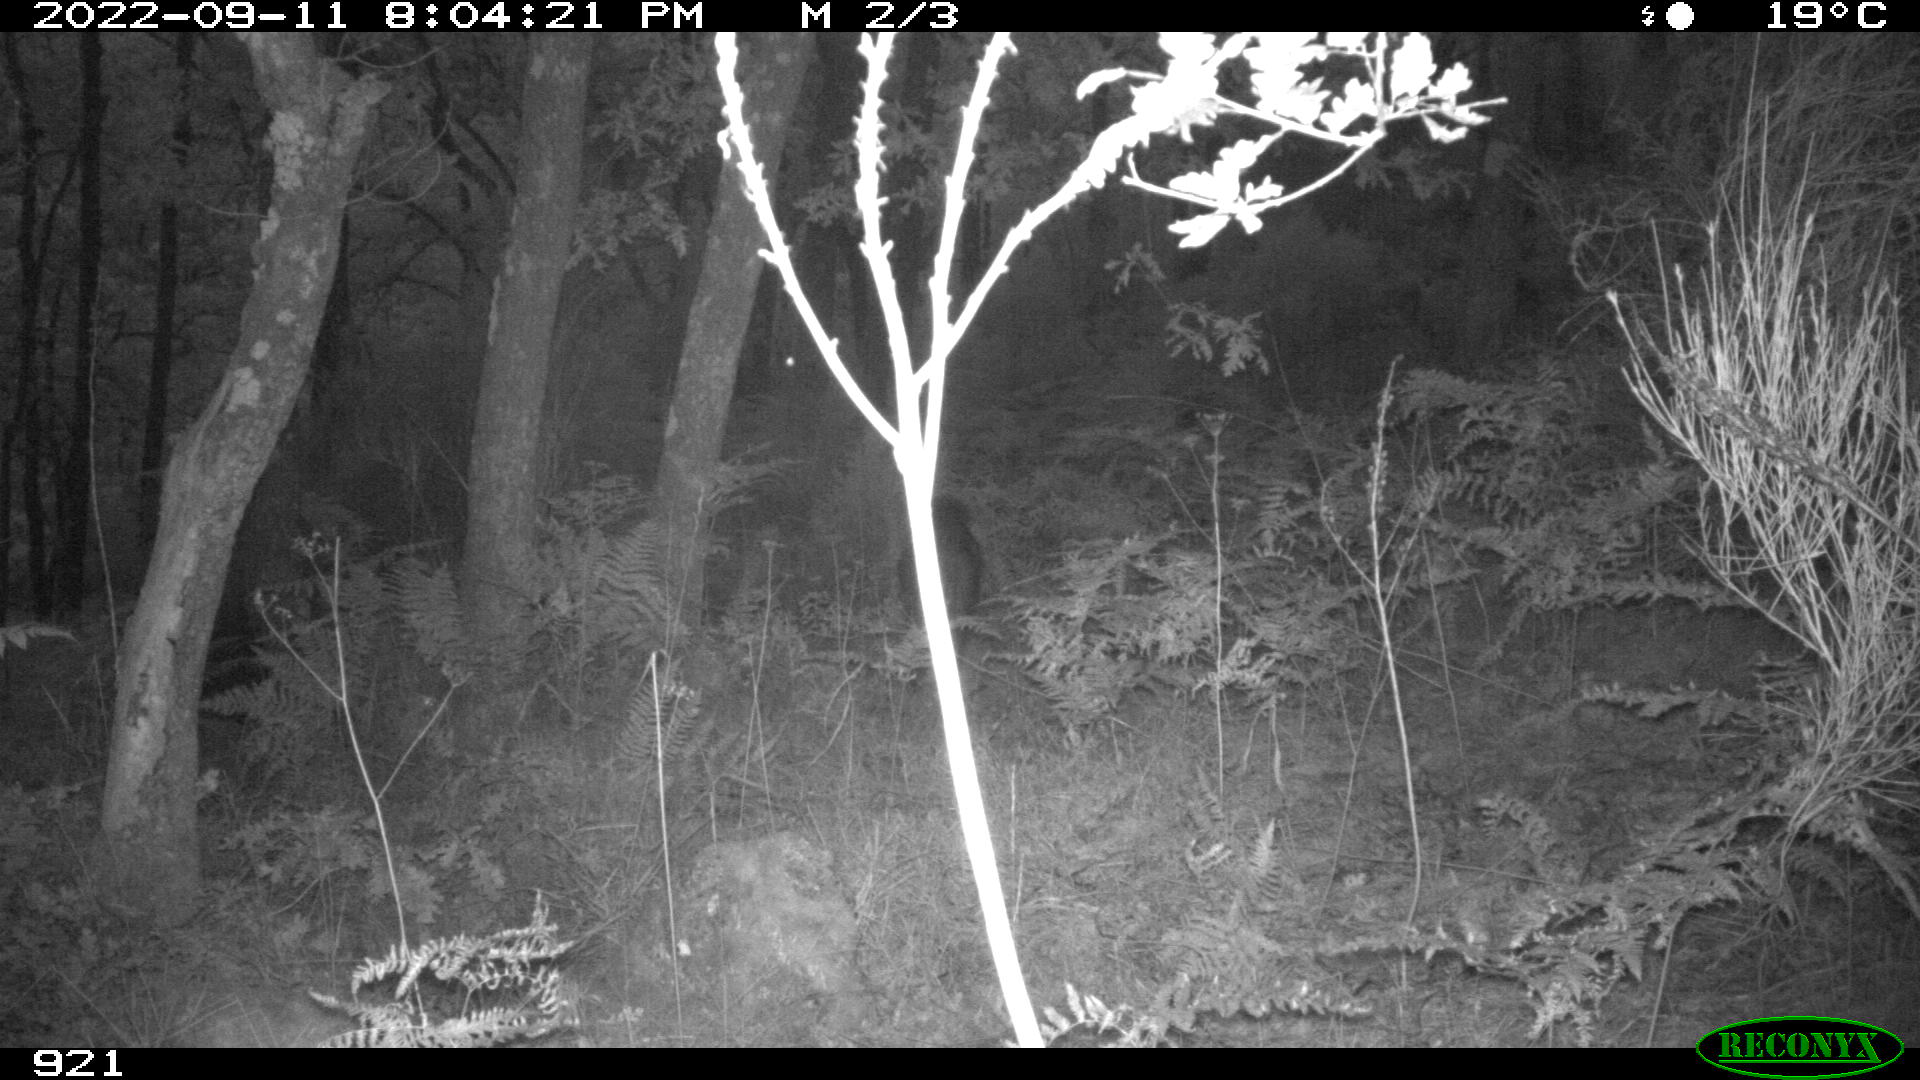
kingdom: Animalia
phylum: Chordata
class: Mammalia
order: Artiodactyla
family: Suidae
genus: Sus
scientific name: Sus scrofa
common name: Wild boar
